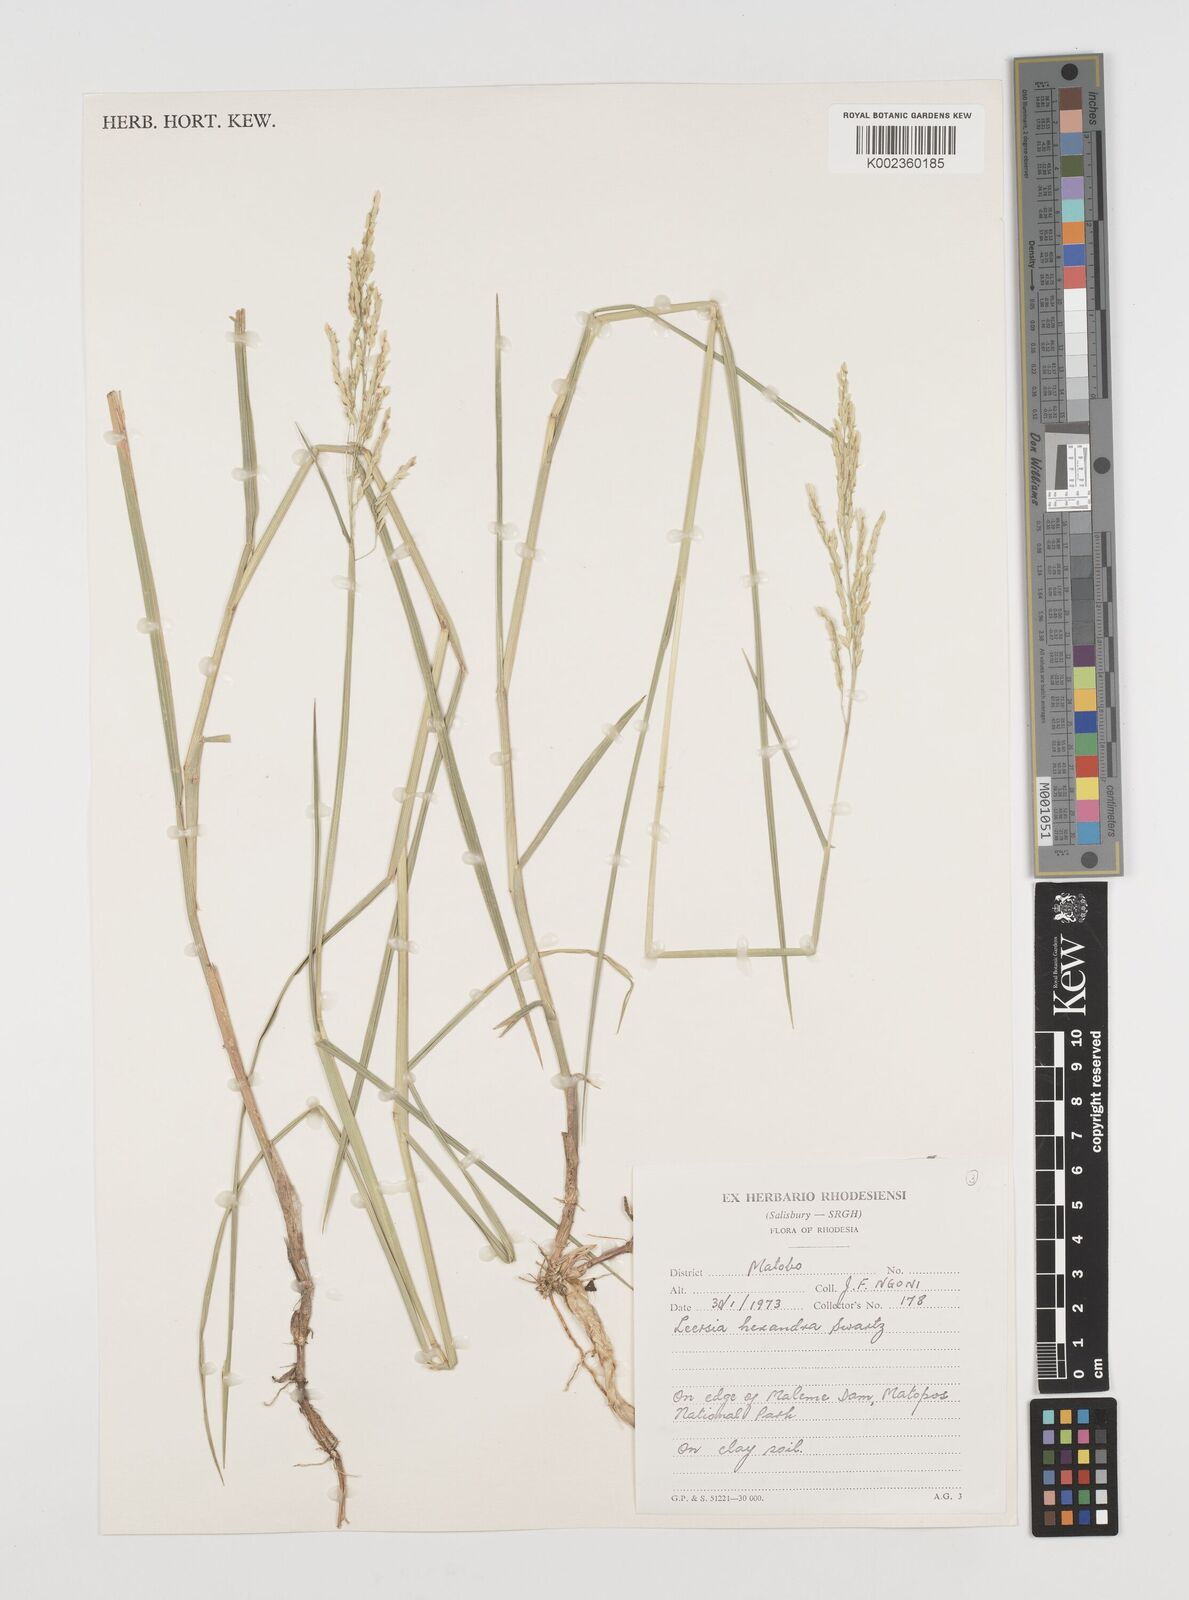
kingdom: Plantae
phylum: Tracheophyta
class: Liliopsida
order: Poales
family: Poaceae
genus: Leersia
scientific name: Leersia hexandra
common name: Southern cut grass
